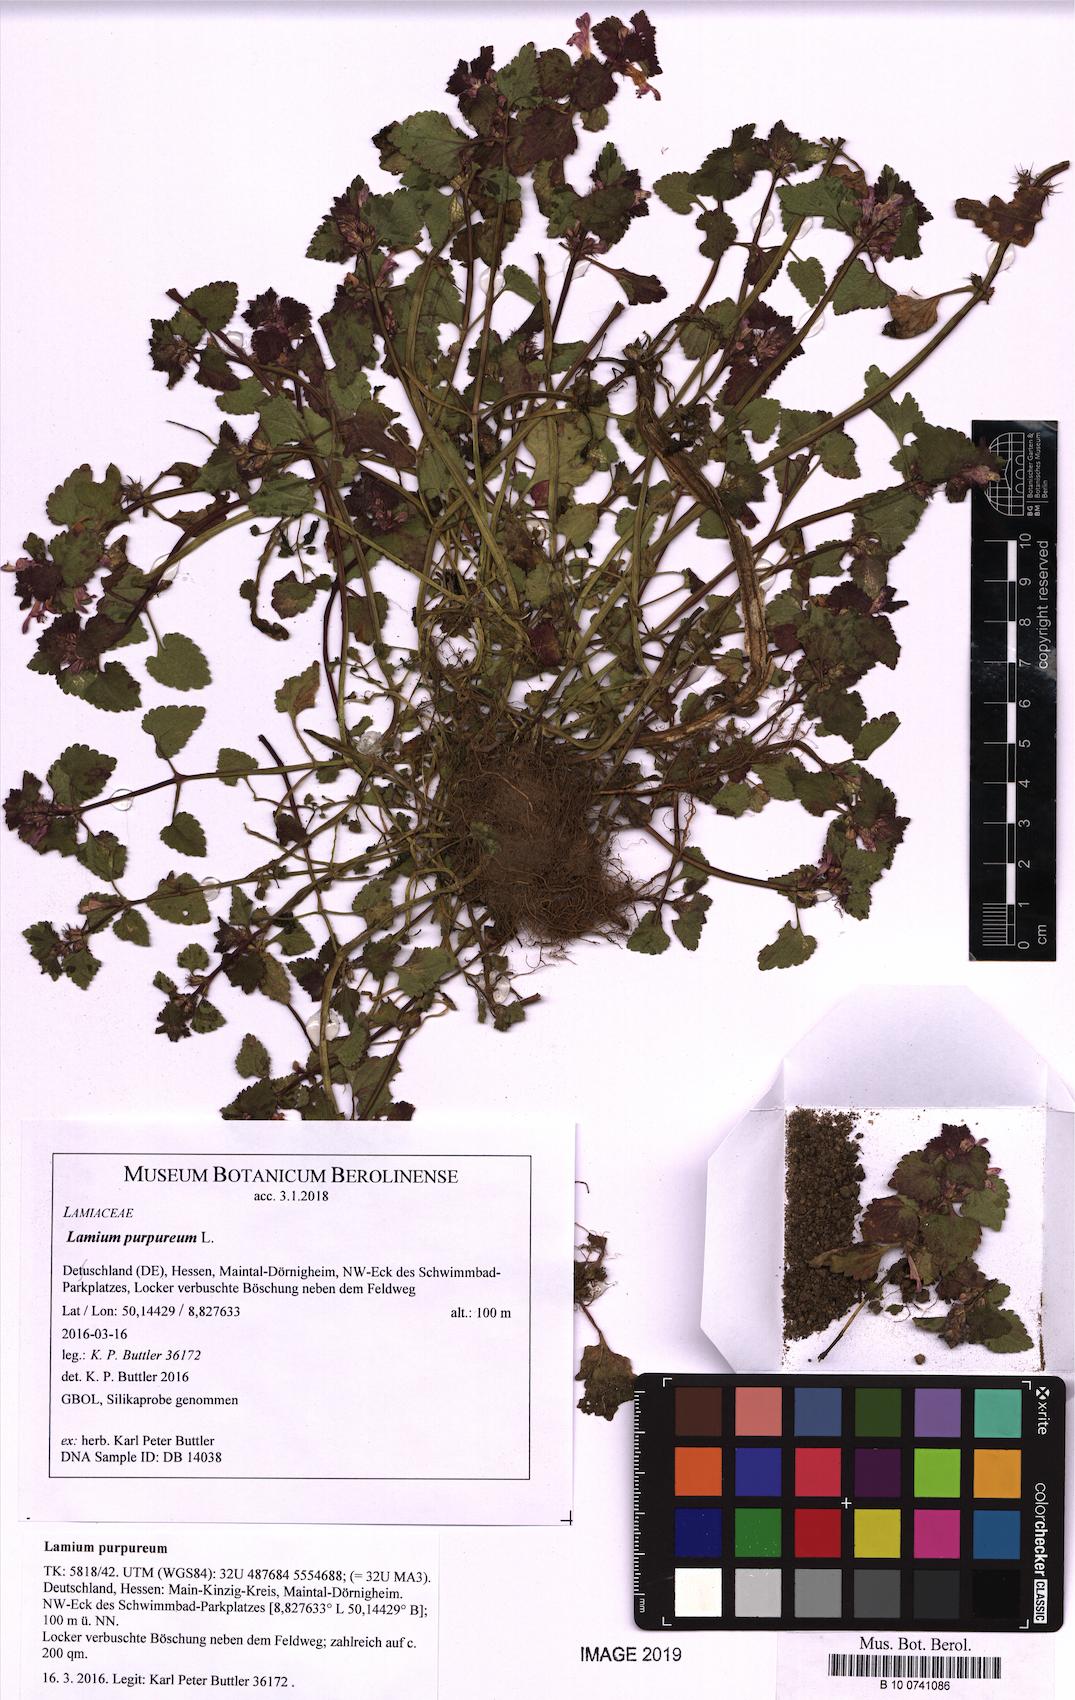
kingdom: Plantae
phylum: Tracheophyta
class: Magnoliopsida
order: Lamiales
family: Lamiaceae
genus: Lamium
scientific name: Lamium purpureum
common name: Red dead-nettle
